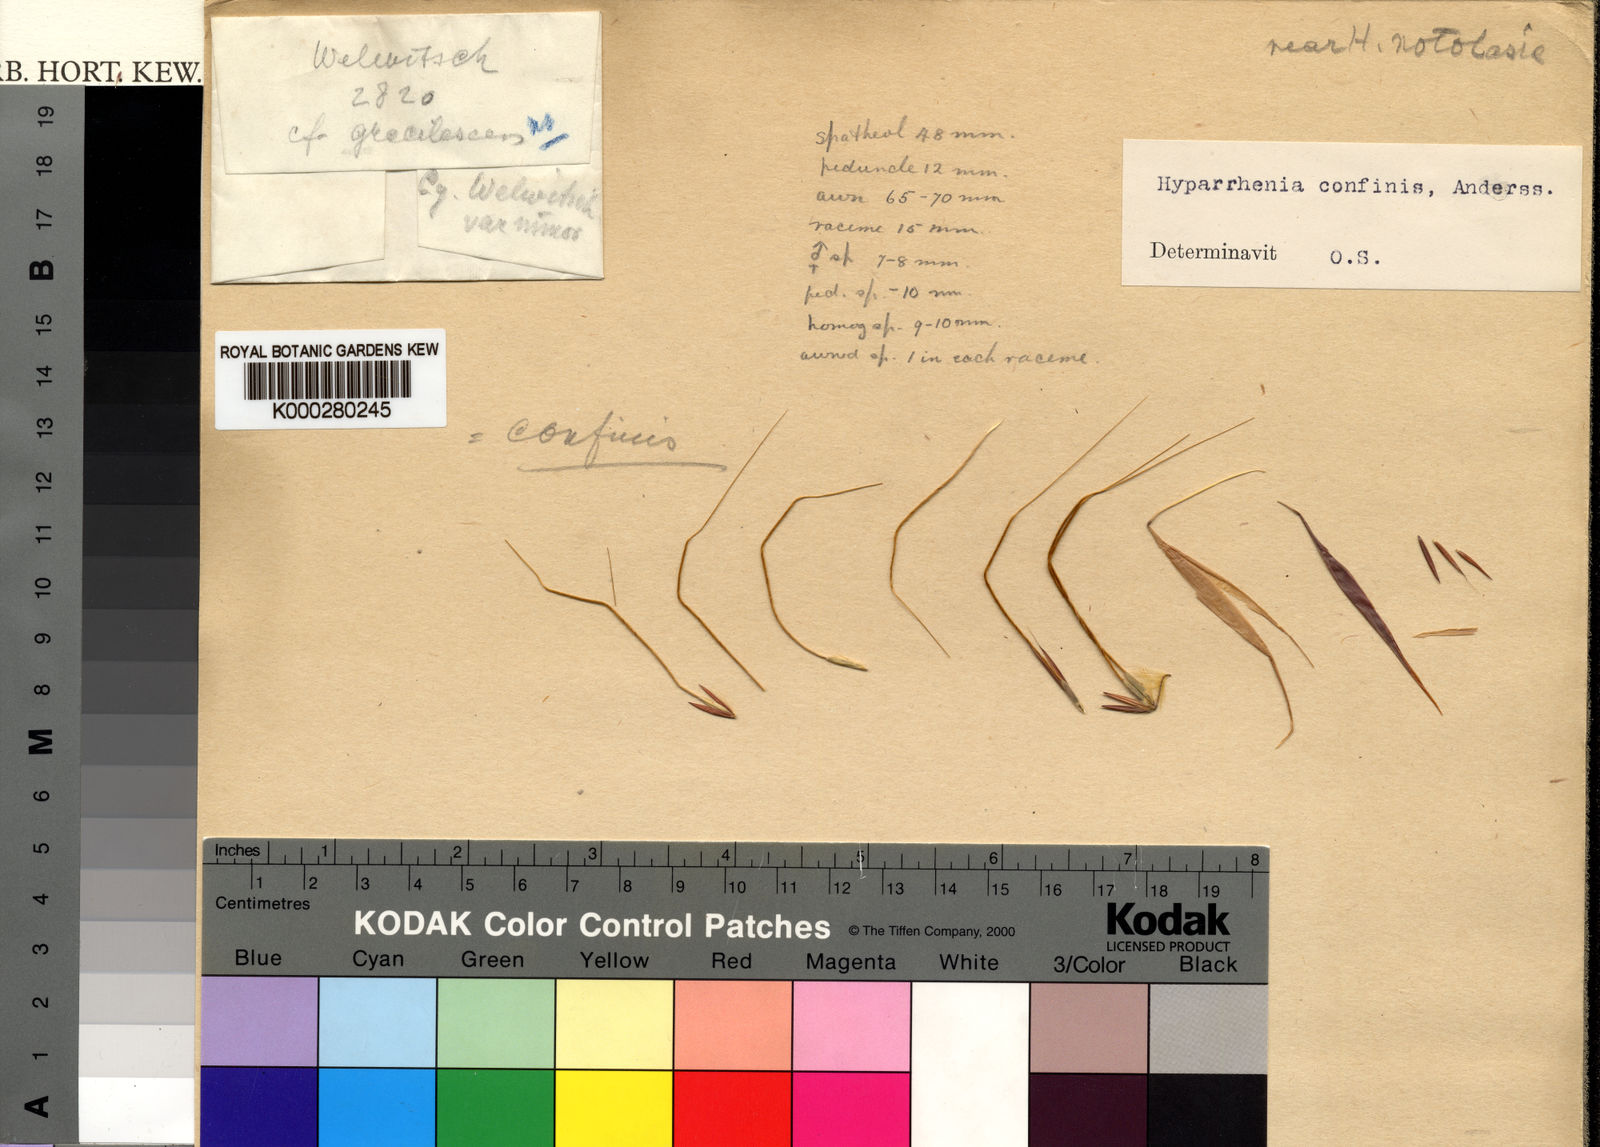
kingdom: Plantae
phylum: Tracheophyta
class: Liliopsida
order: Poales
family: Poaceae
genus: Hyparrhenia
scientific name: Hyparrhenia niariensis
